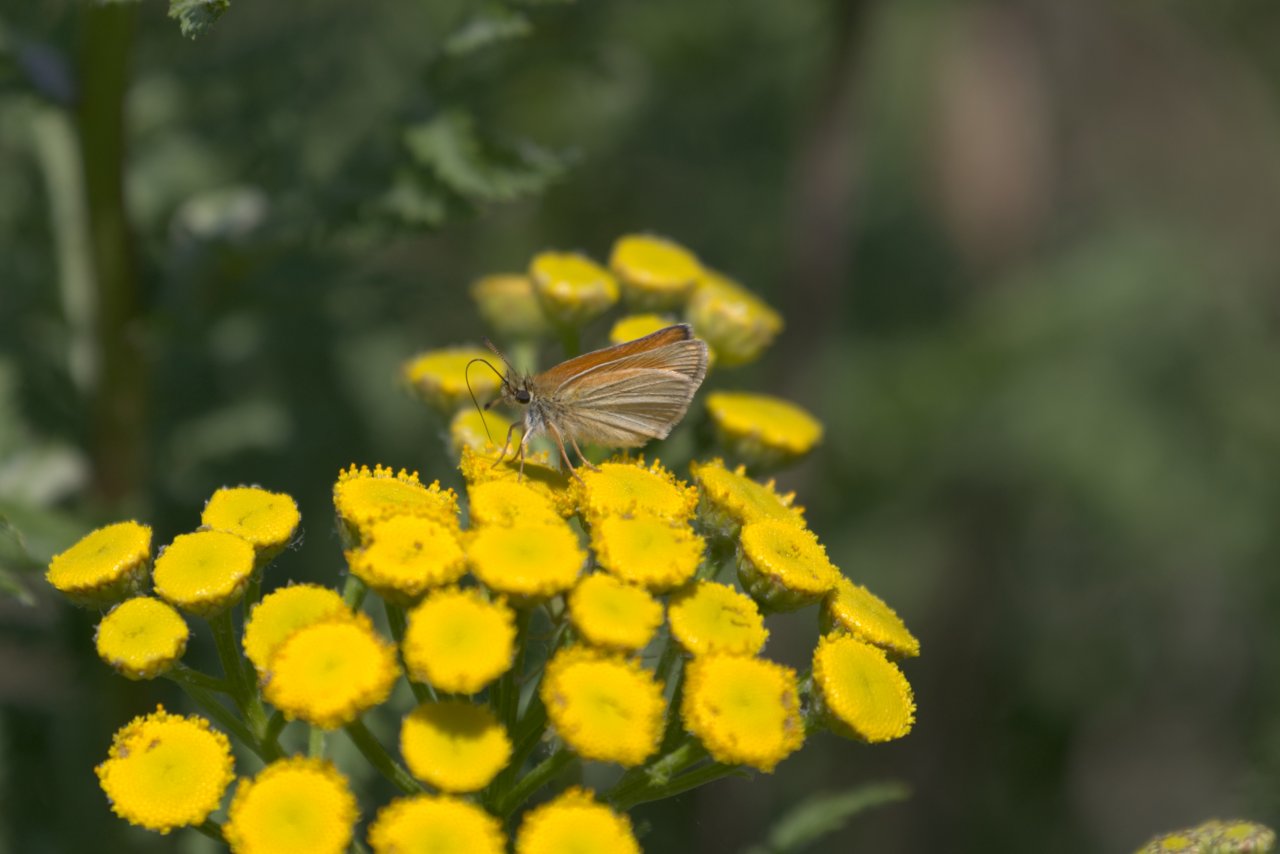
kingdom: Animalia
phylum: Arthropoda
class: Insecta
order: Lepidoptera
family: Hesperiidae
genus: Thymelicus
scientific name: Thymelicus lineola
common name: European Skipper
